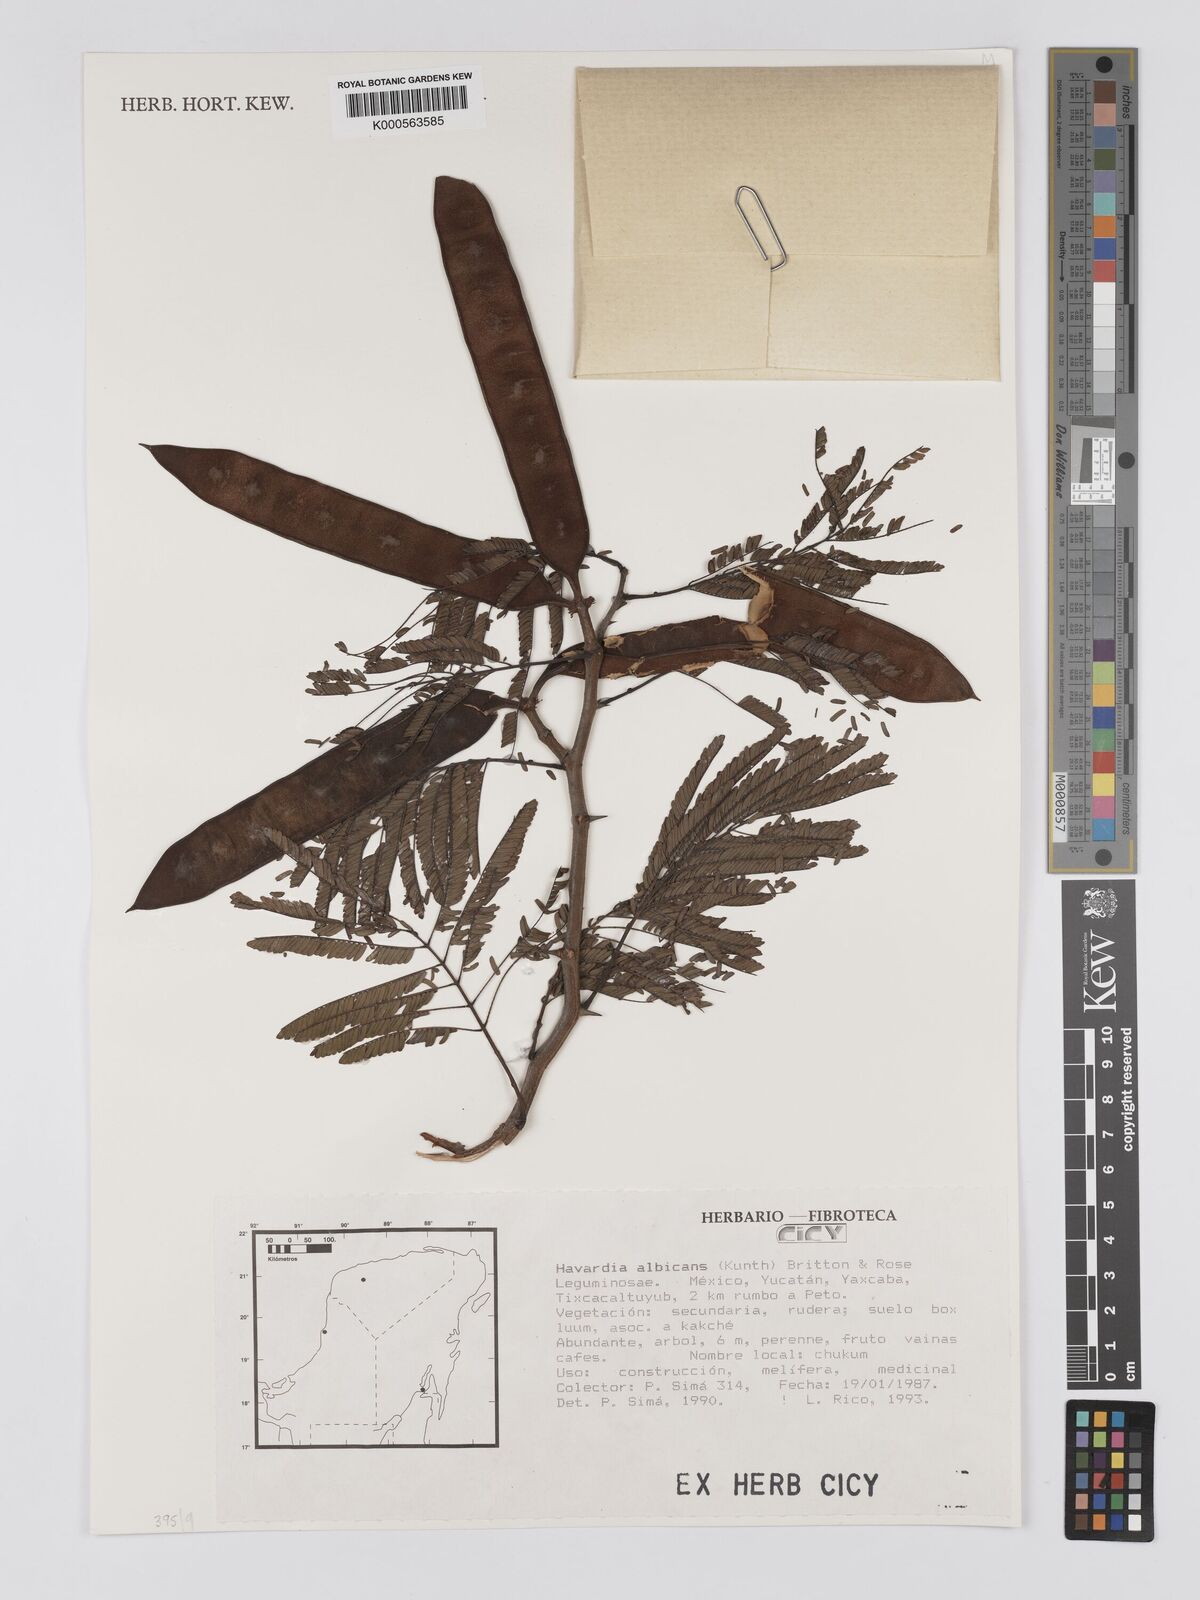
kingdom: Plantae
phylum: Tracheophyta
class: Magnoliopsida
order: Fabales
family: Fabaceae
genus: Havardia
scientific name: Havardia albicans
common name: Huisache
